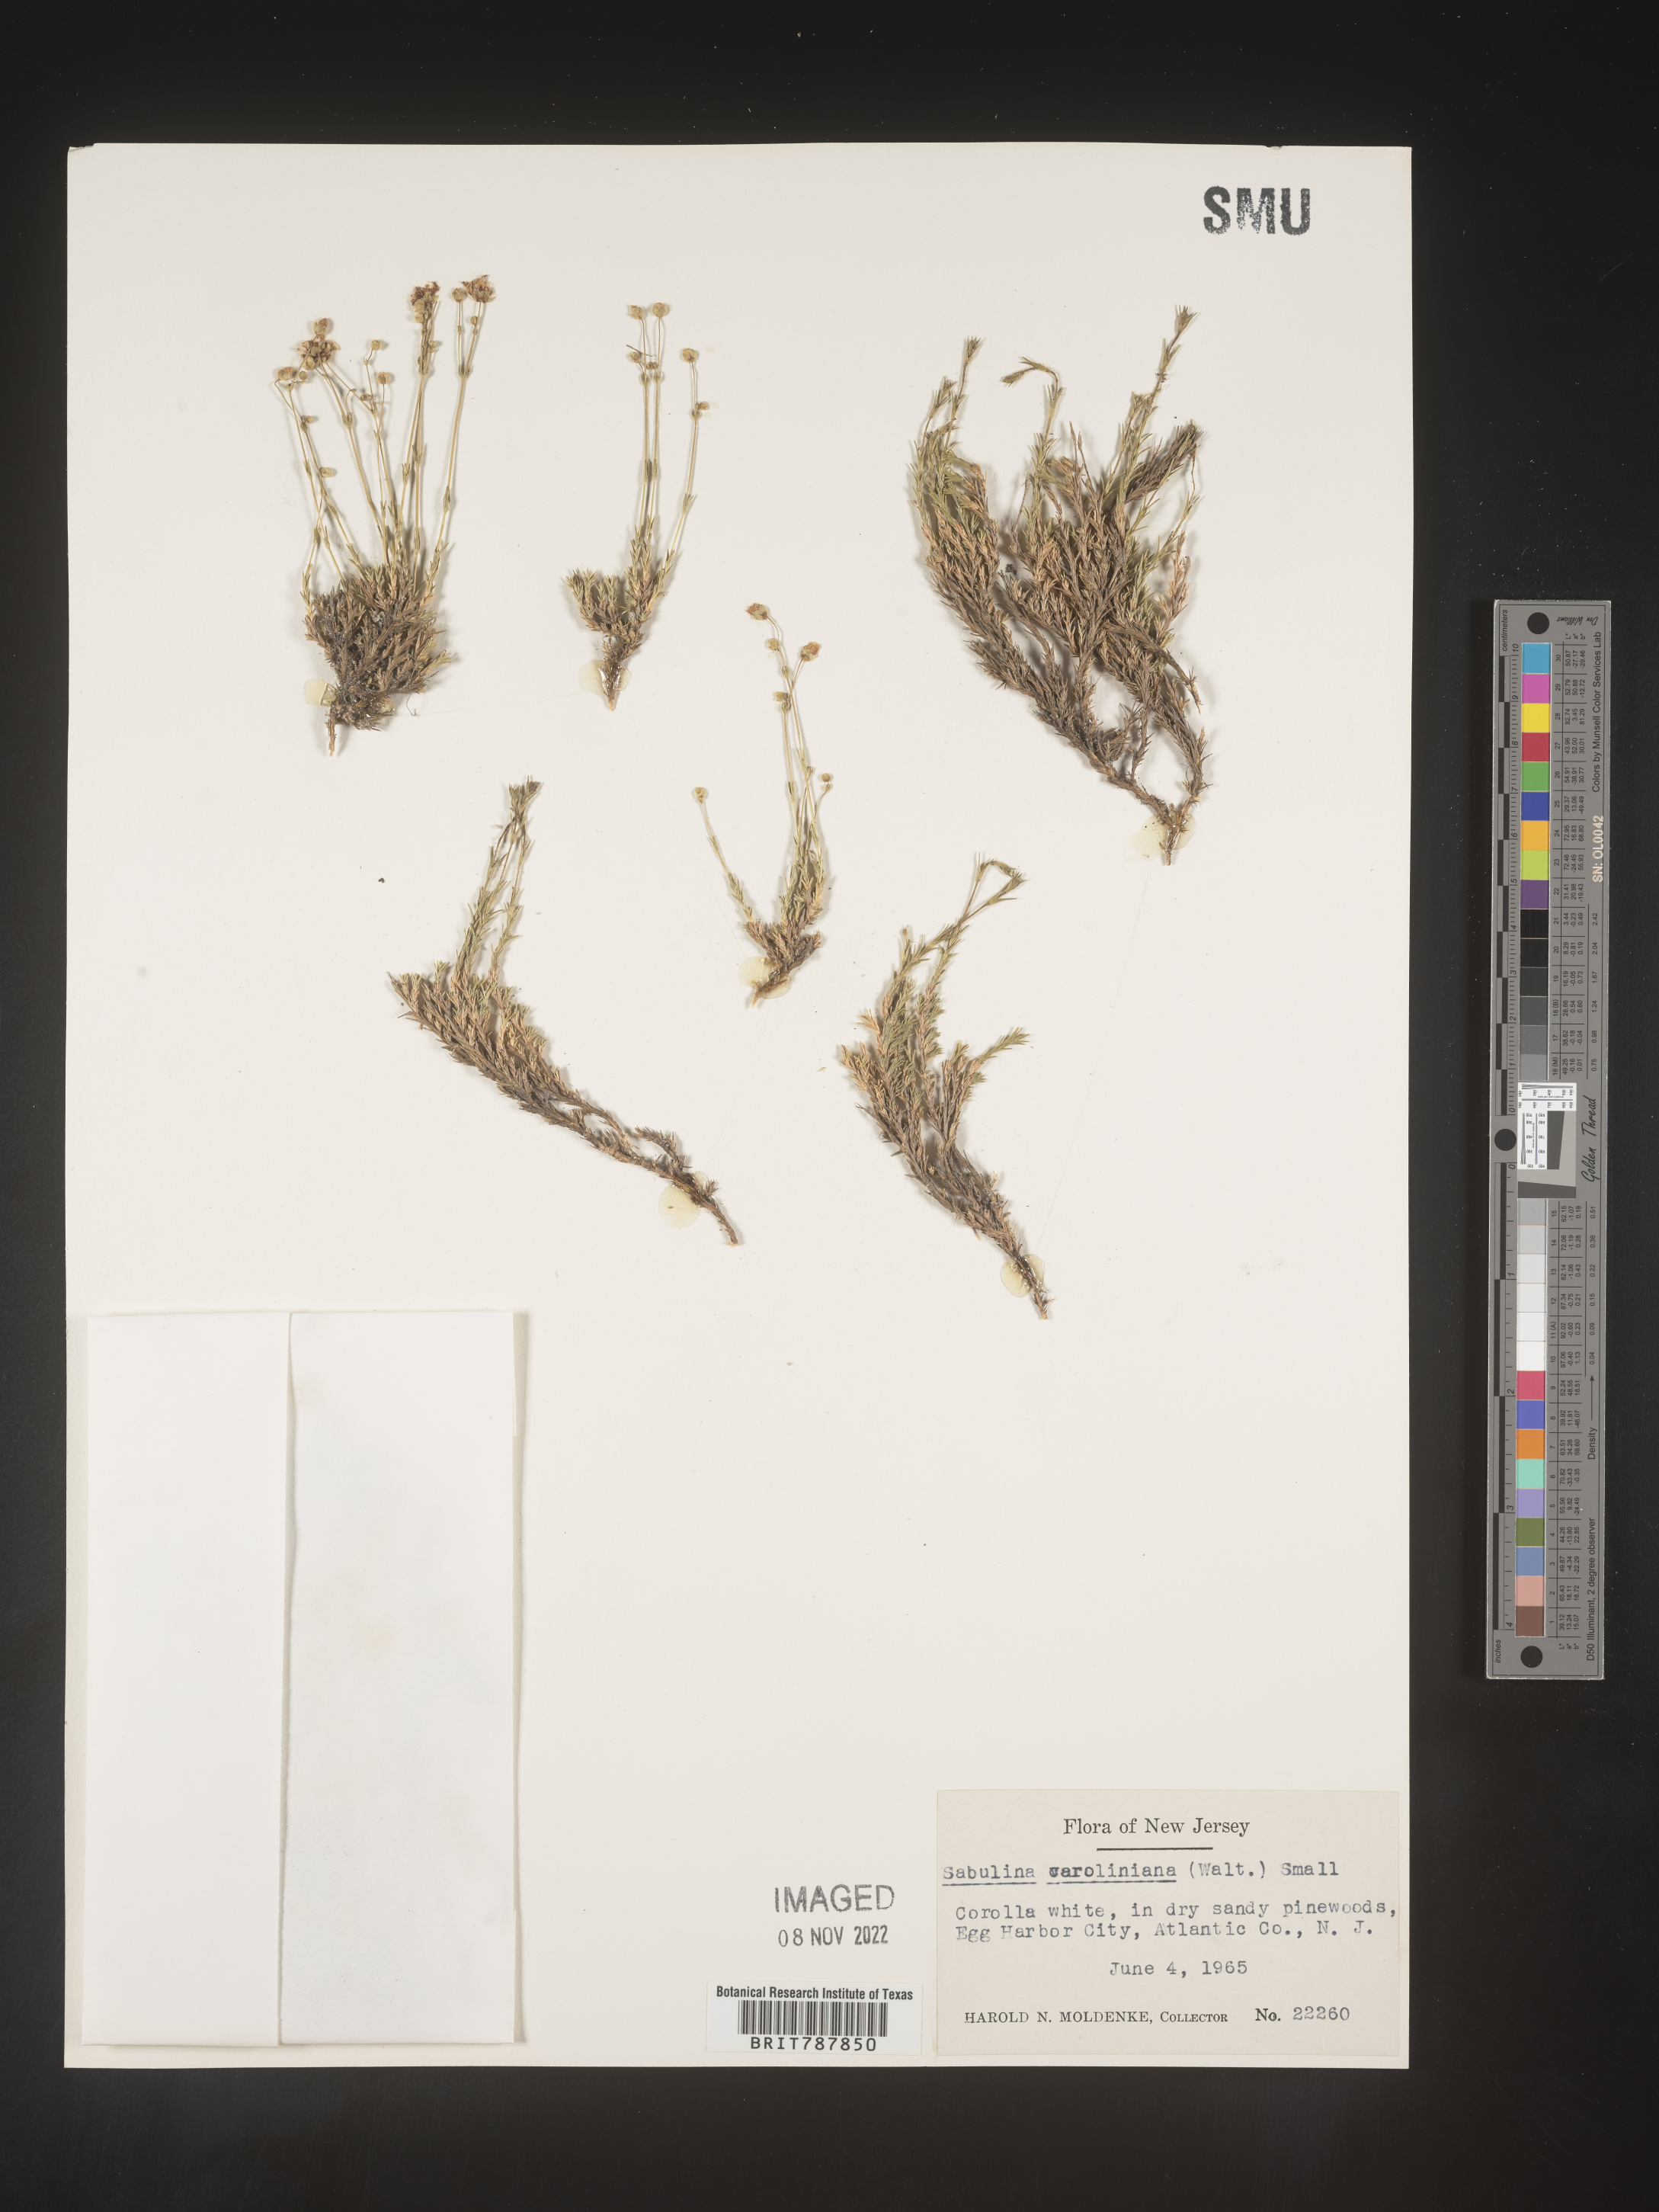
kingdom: Plantae
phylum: Tracheophyta
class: Magnoliopsida
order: Caryophyllales
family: Caryophyllaceae
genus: Arenaria
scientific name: Arenaria
